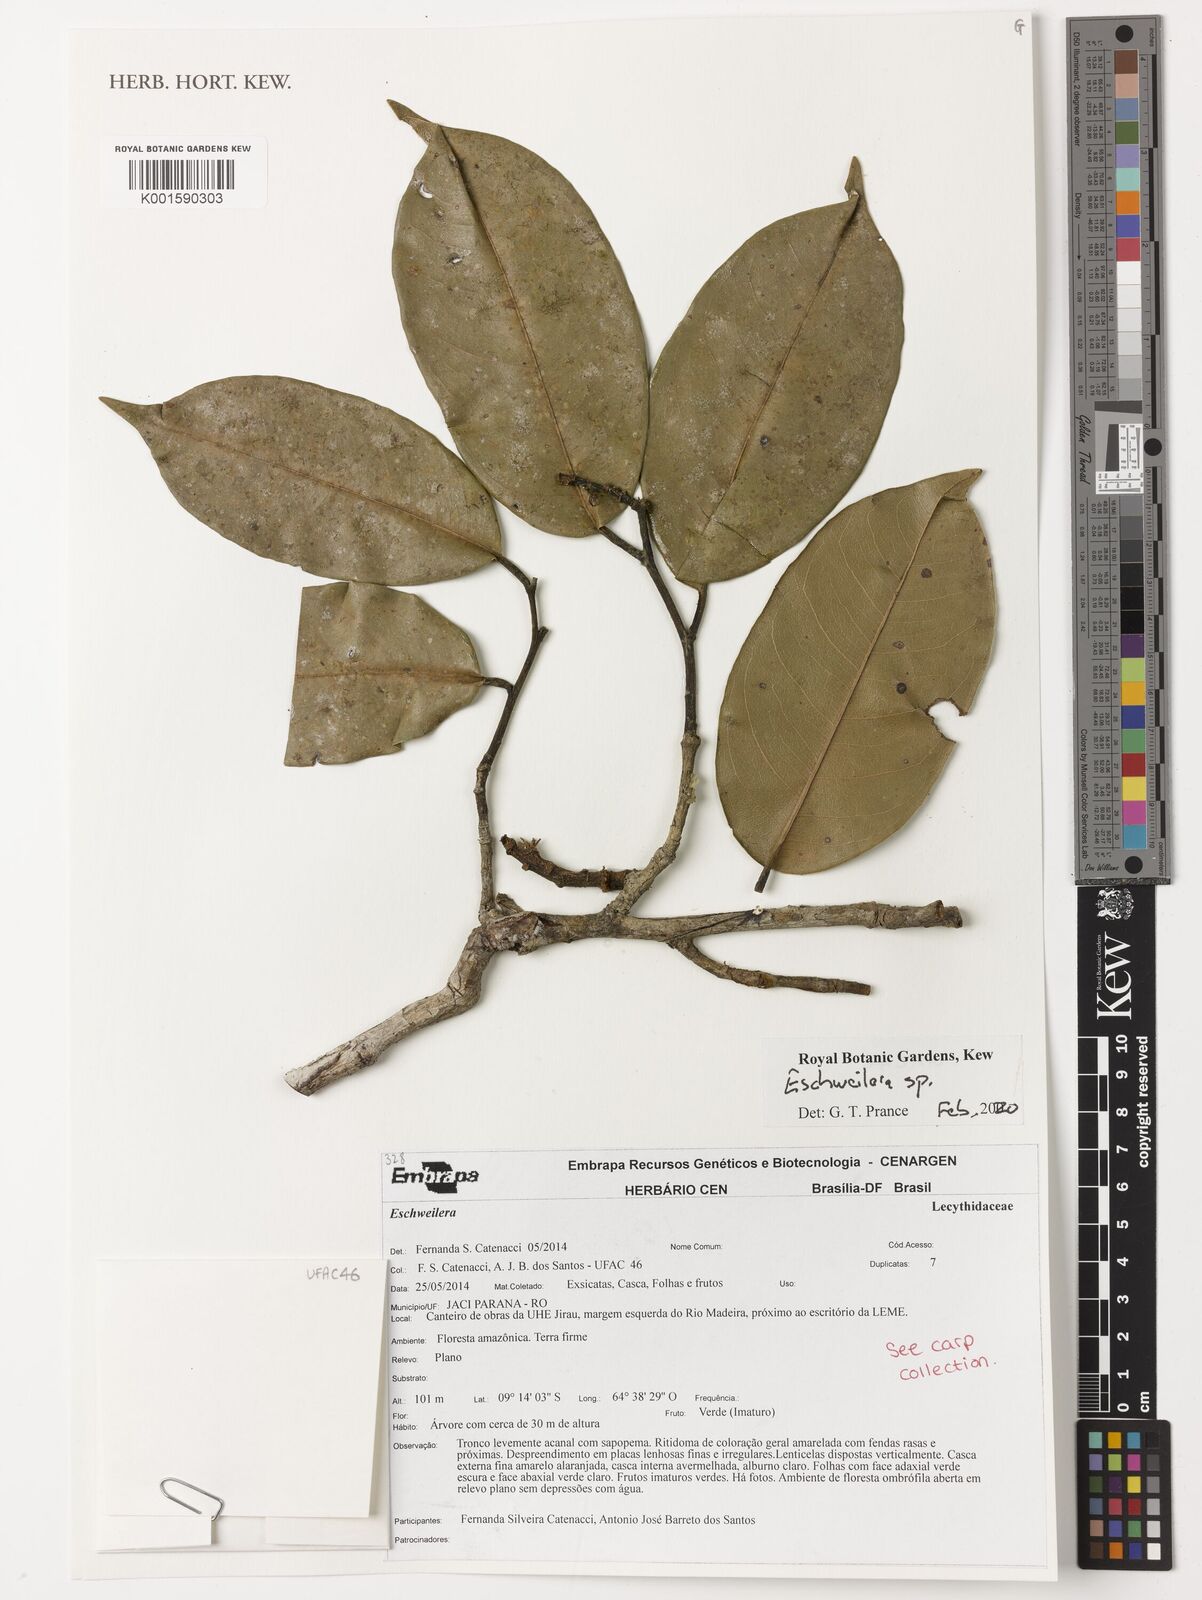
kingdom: Plantae
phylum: Tracheophyta
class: Magnoliopsida
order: Ericales
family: Lecythidaceae
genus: Eschweilera
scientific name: Eschweilera
